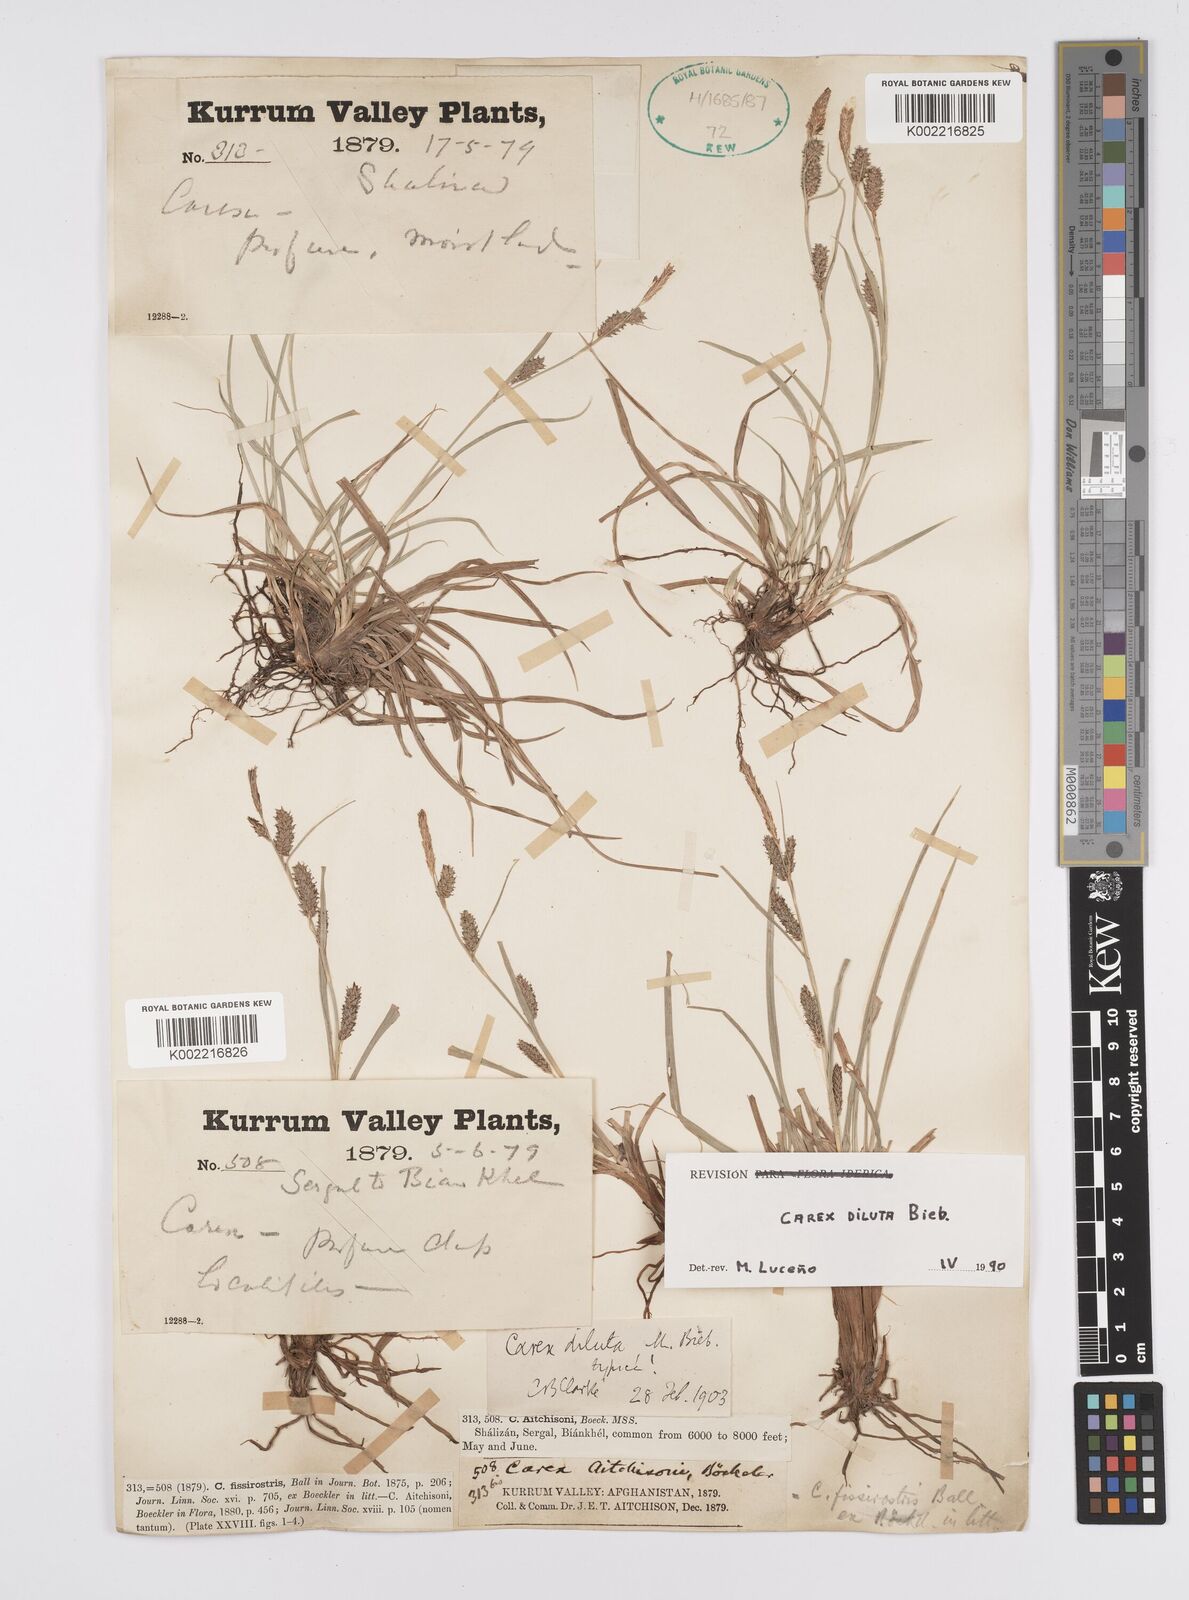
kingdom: Plantae
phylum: Tracheophyta
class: Liliopsida
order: Poales
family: Cyperaceae
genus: Carex
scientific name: Carex diluta
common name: Sedge
